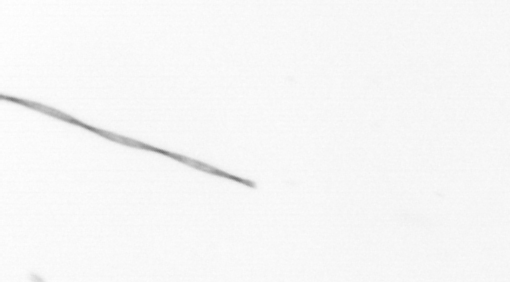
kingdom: Chromista
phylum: Ochrophyta
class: Bacillariophyceae
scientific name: Bacillariophyceae
